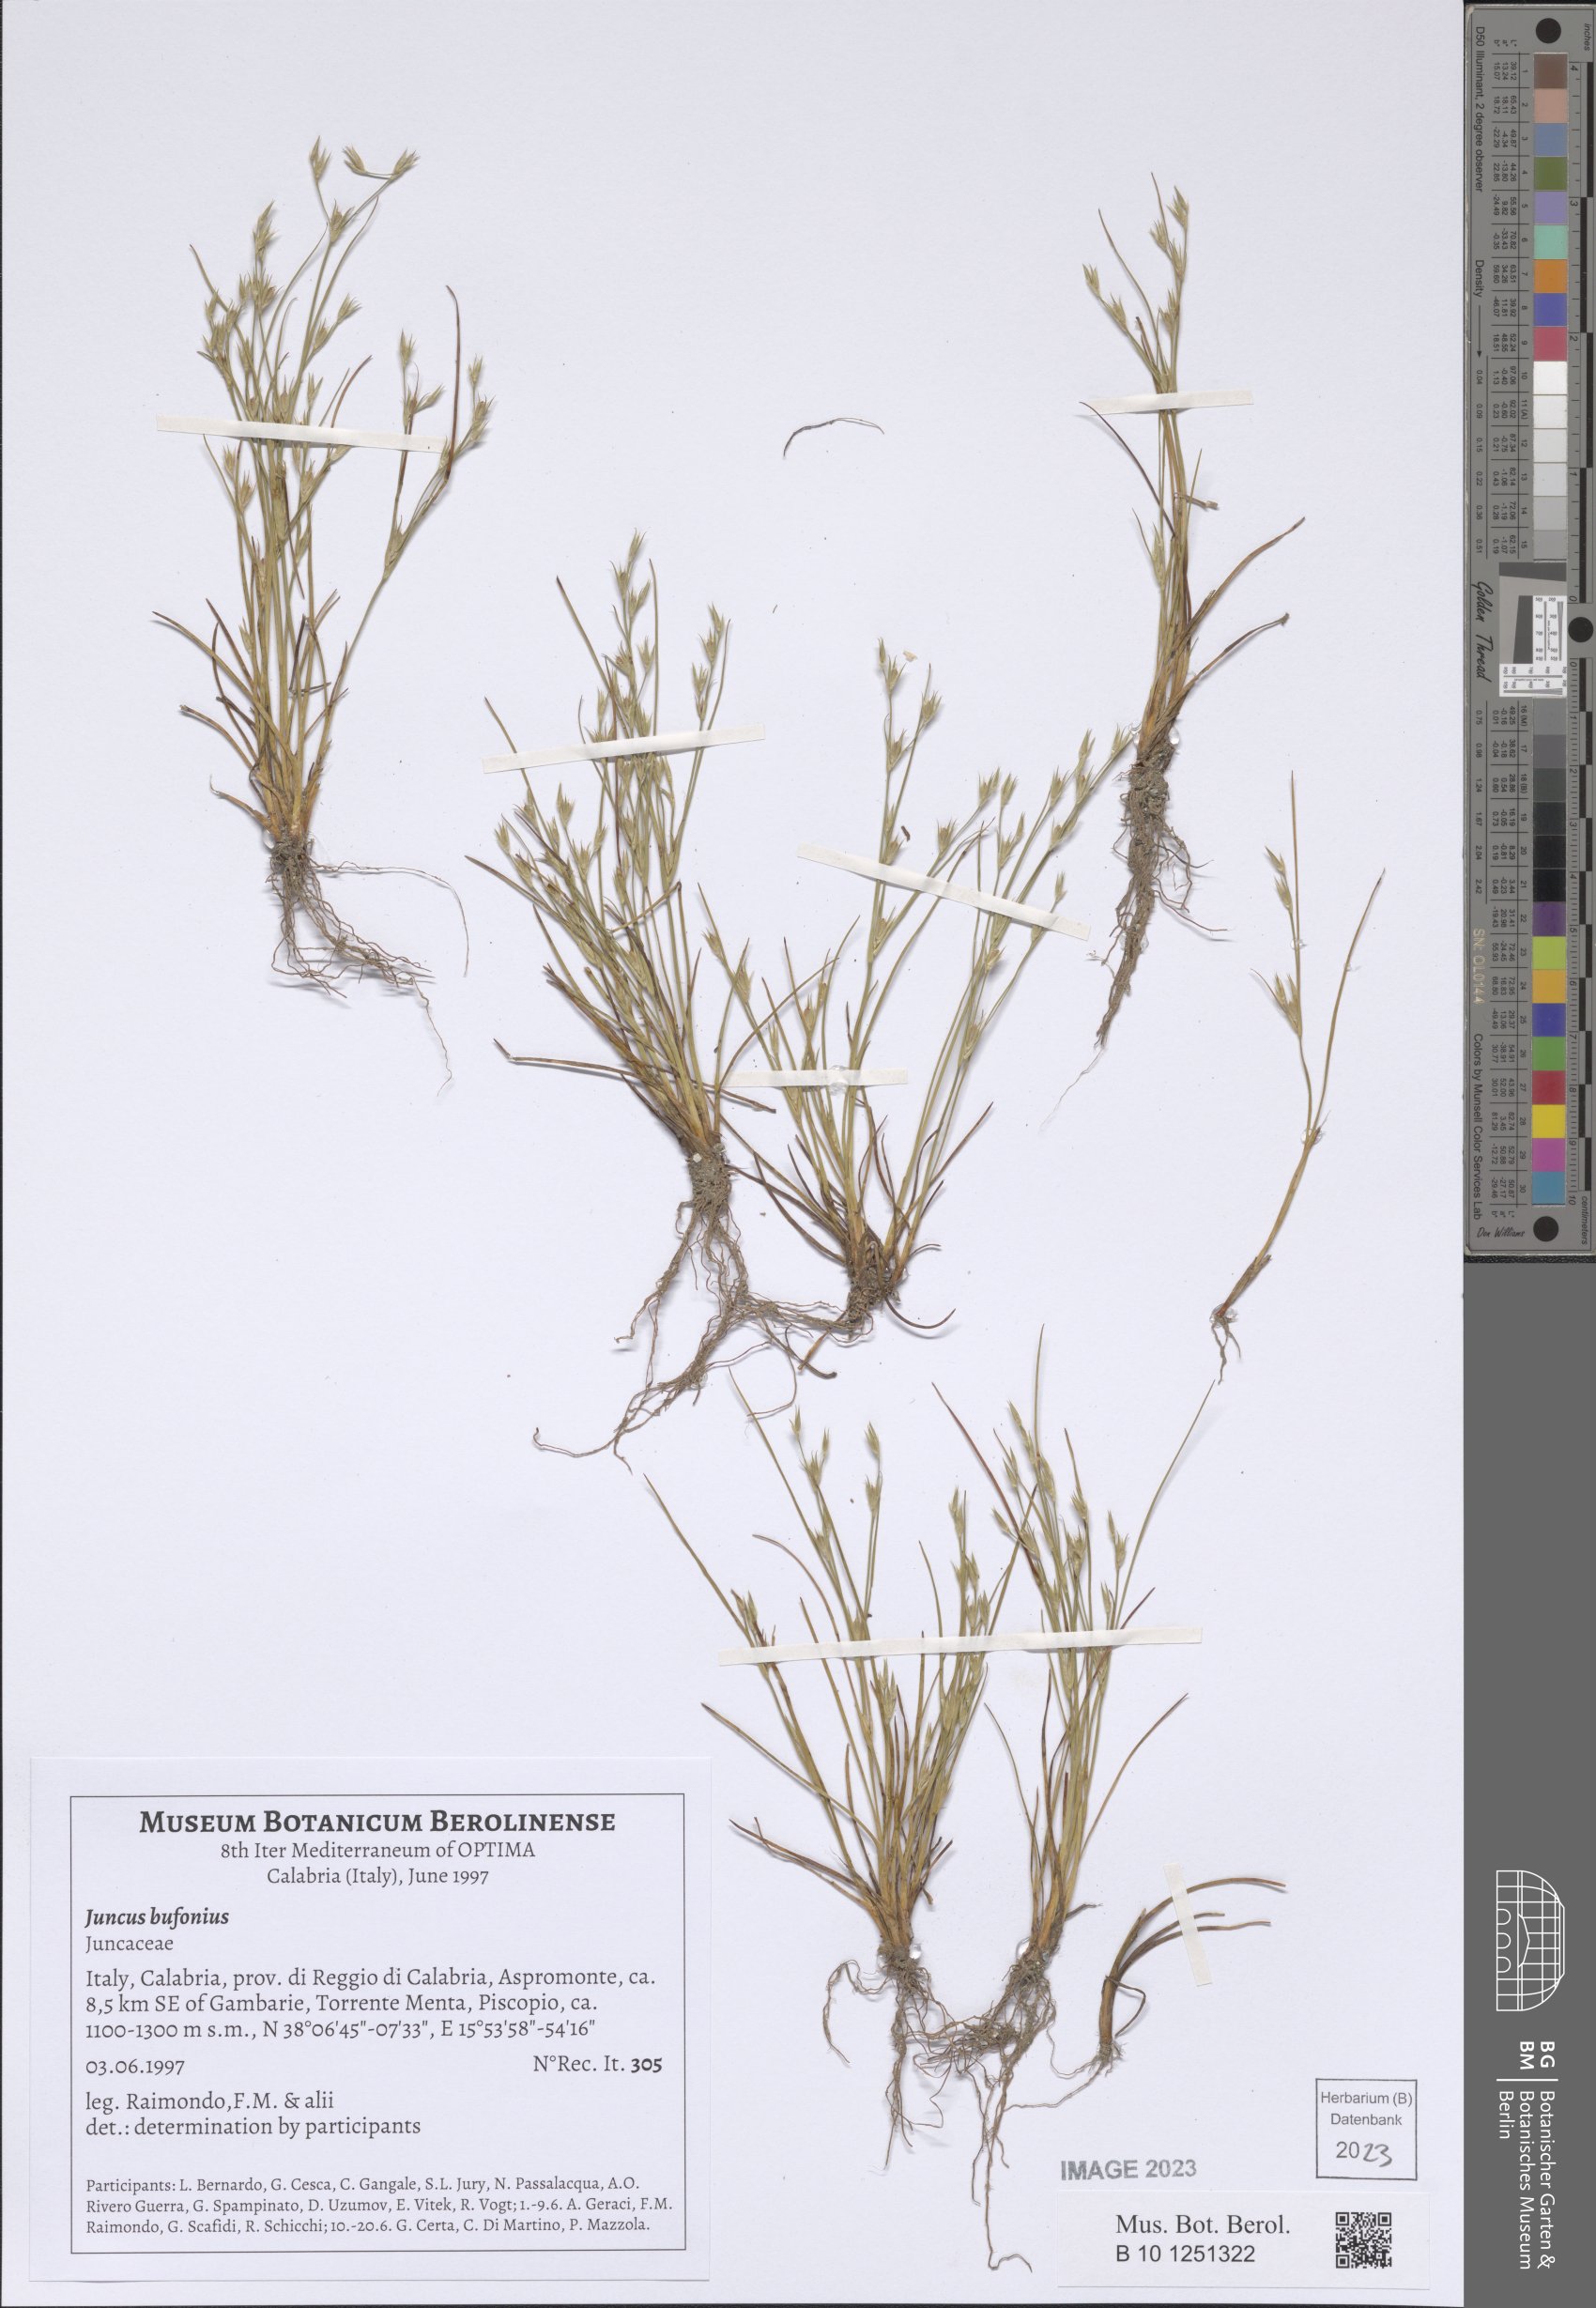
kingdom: Plantae
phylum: Tracheophyta
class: Liliopsida
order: Poales
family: Juncaceae
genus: Juncus
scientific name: Juncus bufonius
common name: Toad rush
